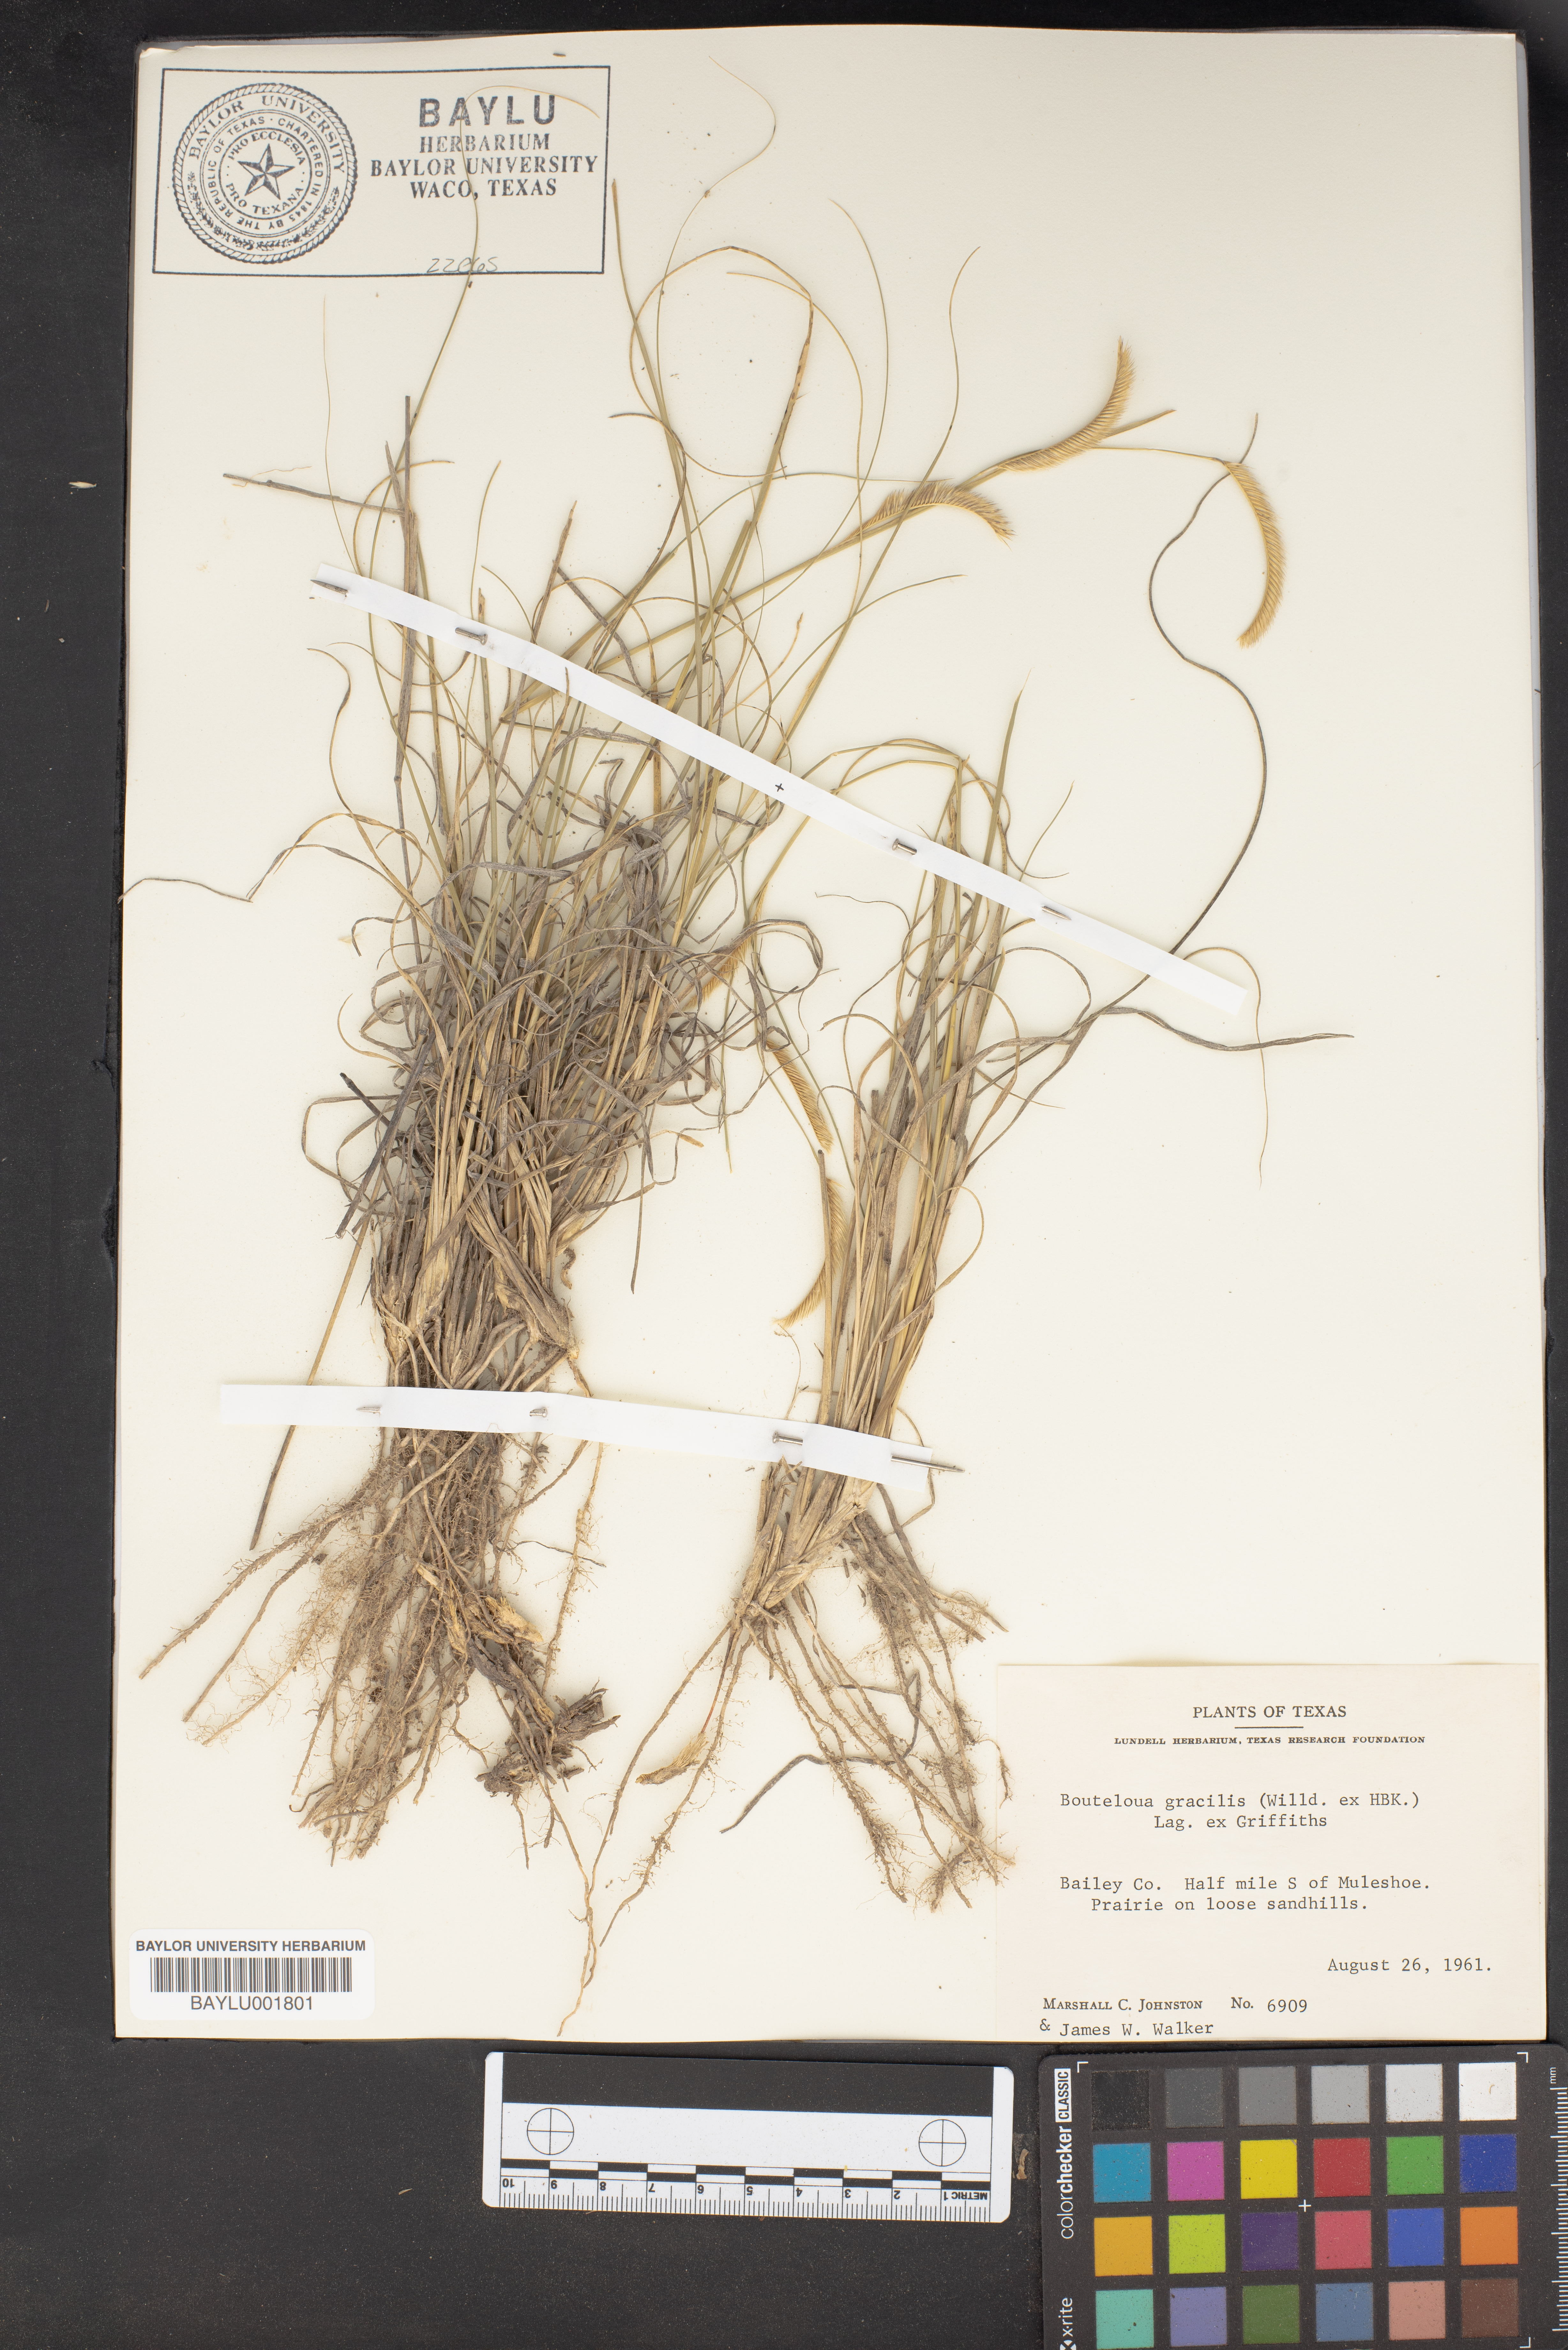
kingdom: Plantae
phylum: Tracheophyta
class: Liliopsida
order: Poales
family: Poaceae
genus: Bouteloua
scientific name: Bouteloua gracilis
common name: Blue grama
